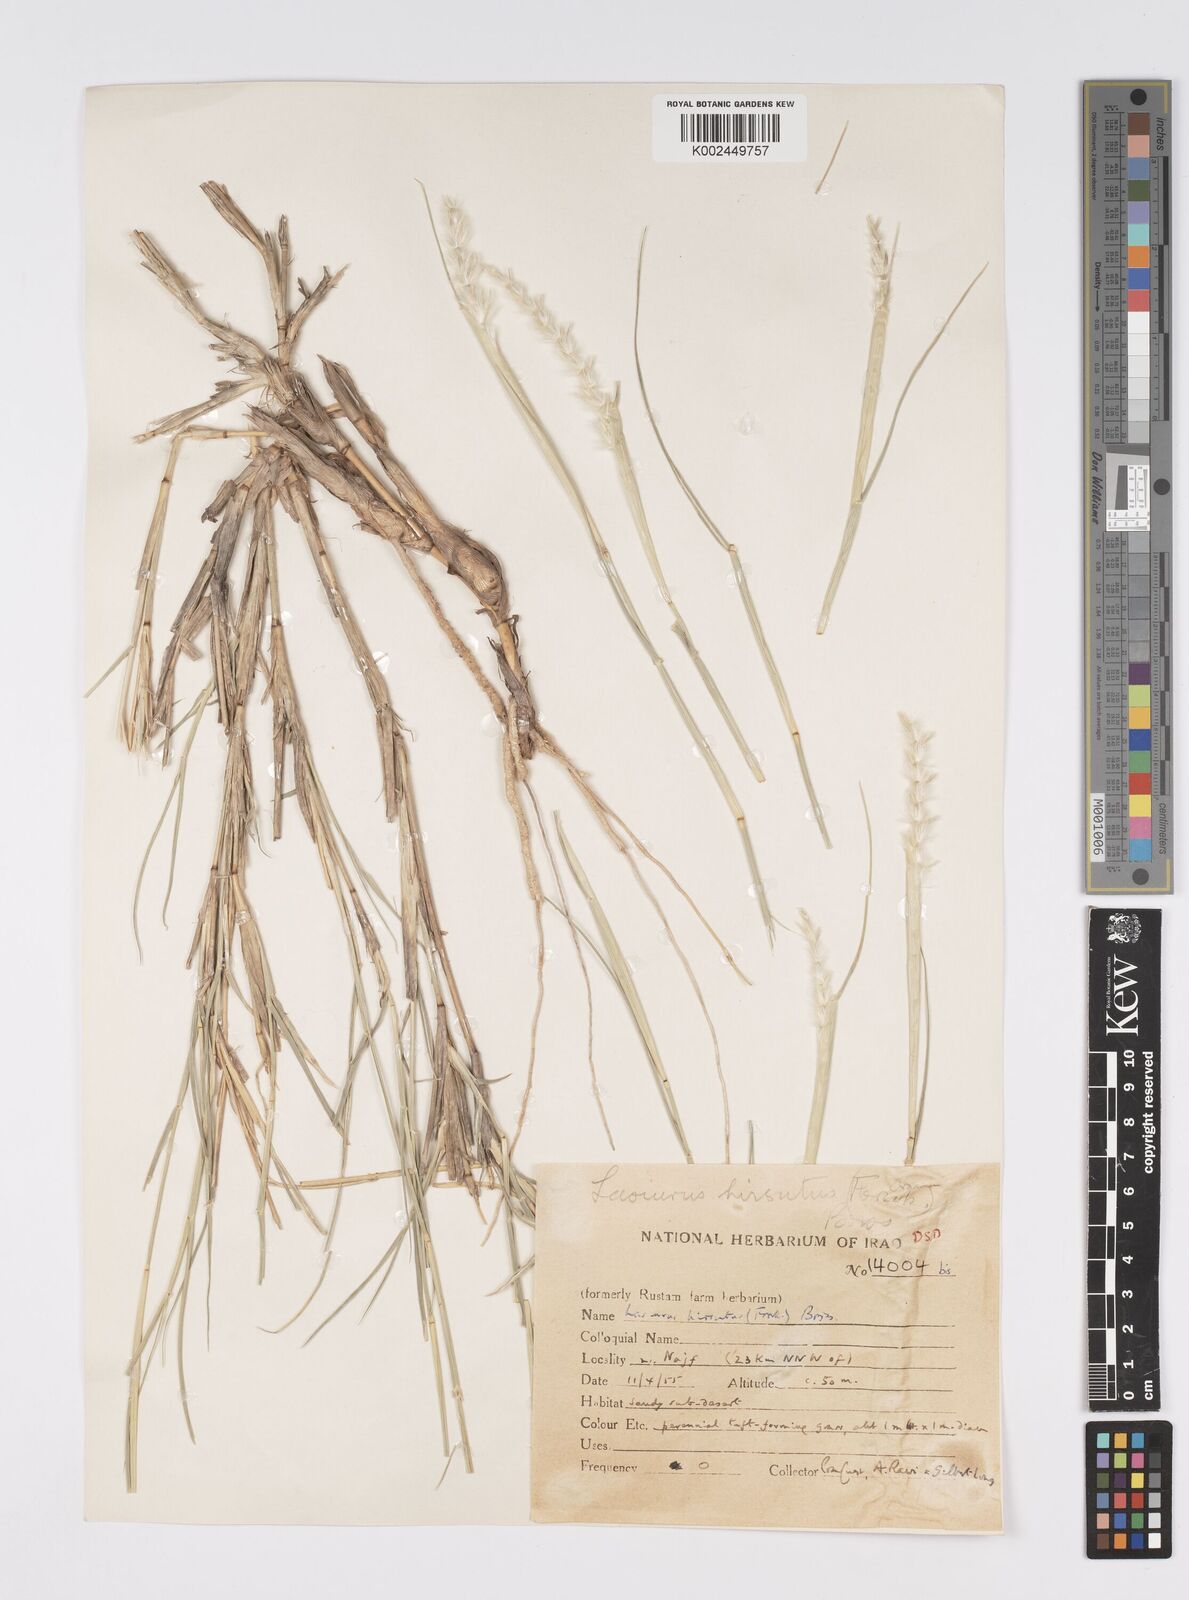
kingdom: Plantae
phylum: Tracheophyta
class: Liliopsida
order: Poales
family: Poaceae
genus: Lasiurus
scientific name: Lasiurus scindicus
